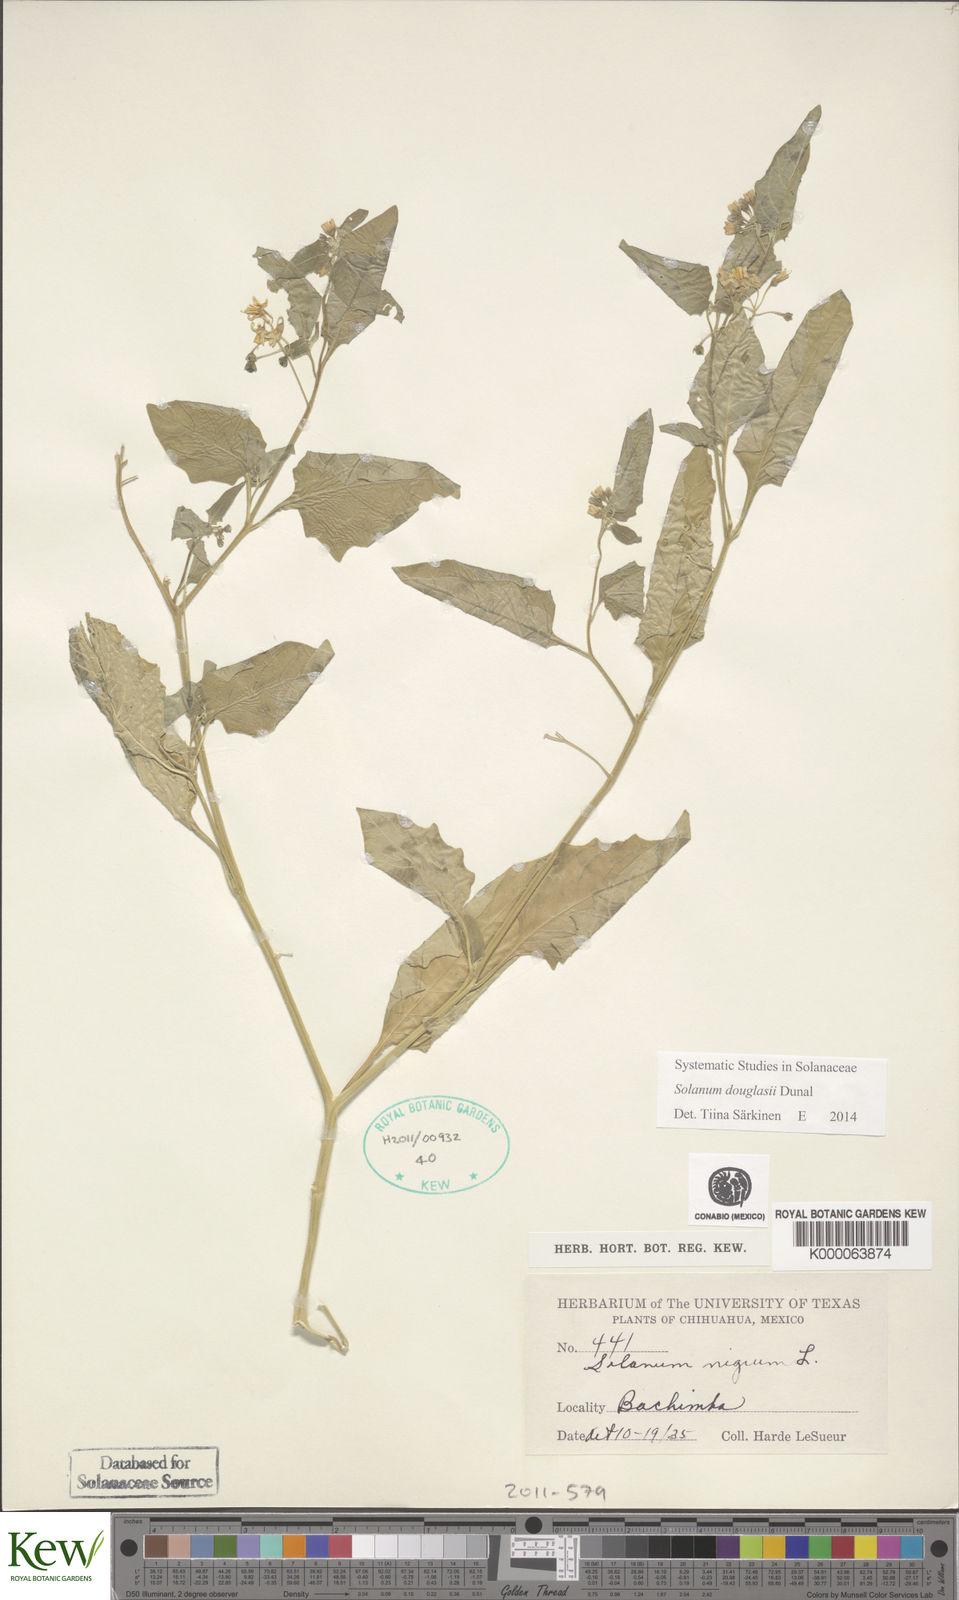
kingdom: Plantae
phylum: Tracheophyta
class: Magnoliopsida
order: Solanales
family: Solanaceae
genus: Solanum
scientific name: Solanum nigrum
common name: Black nightshade
